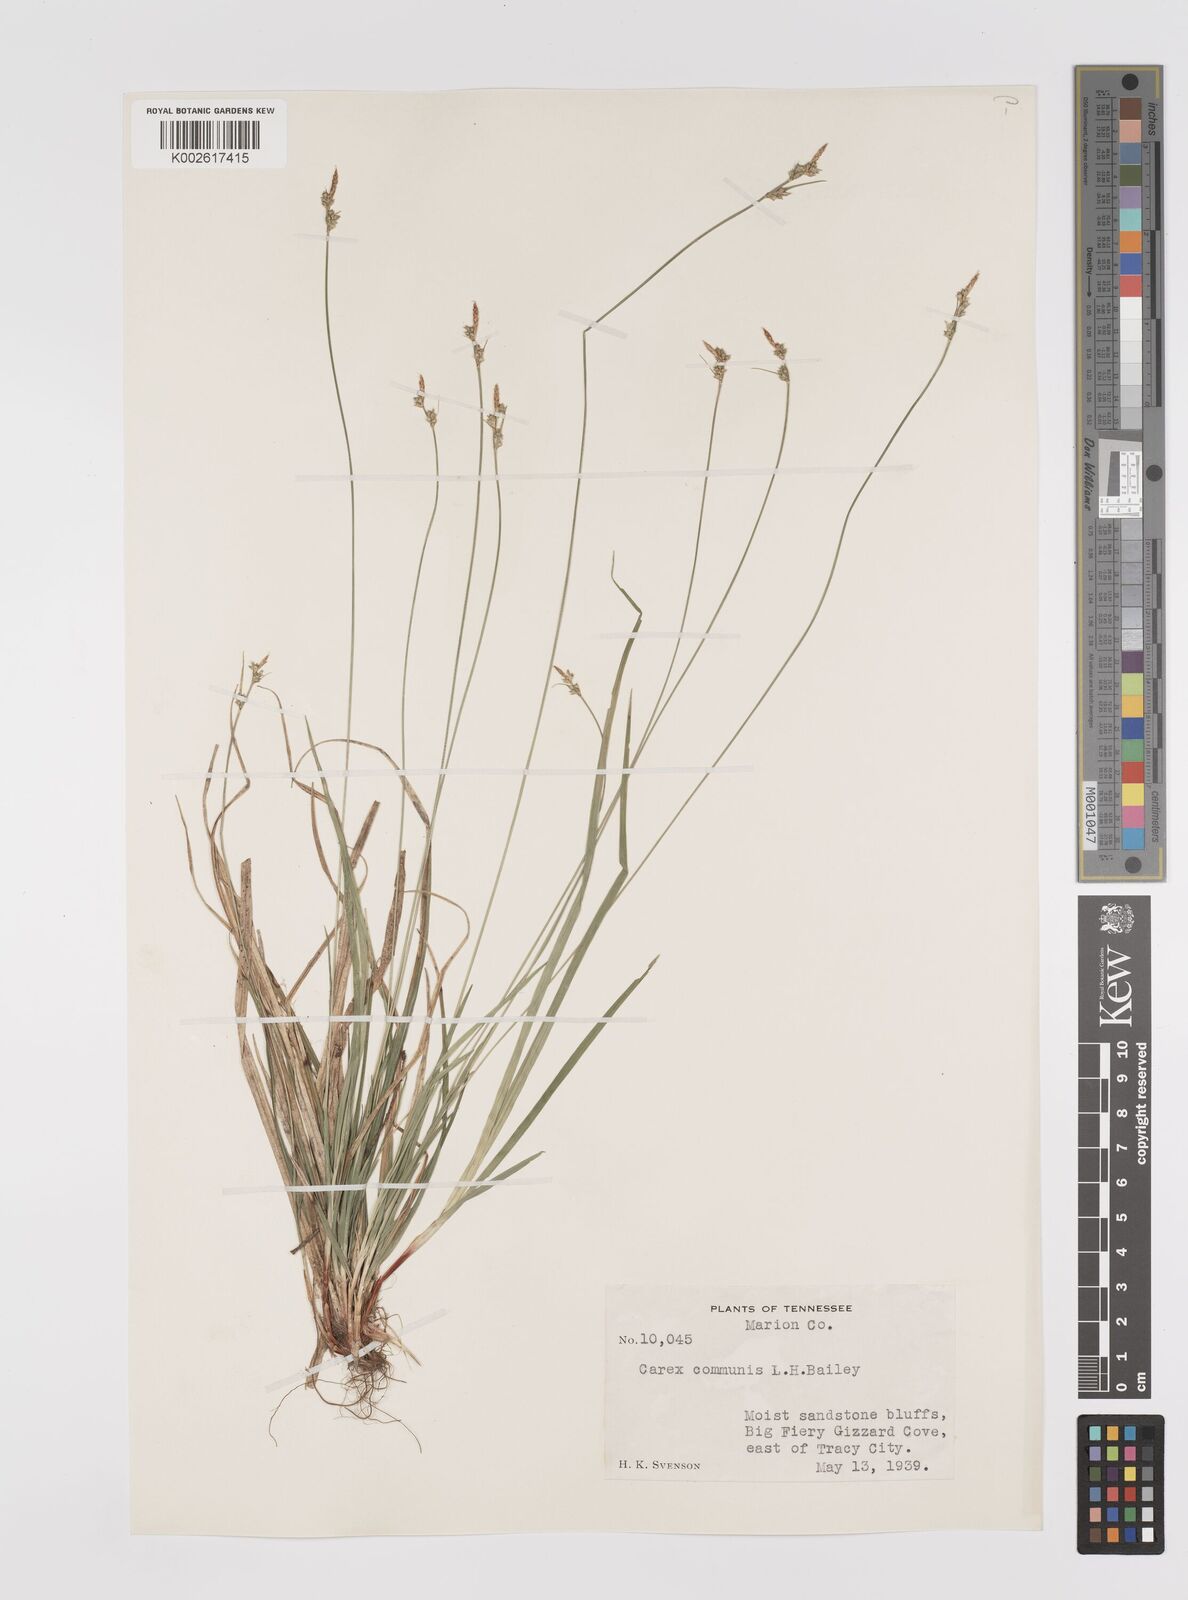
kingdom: Plantae
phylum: Tracheophyta
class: Liliopsida
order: Poales
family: Cyperaceae
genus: Carex
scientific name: Carex communis
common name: Colonial oak sedge
